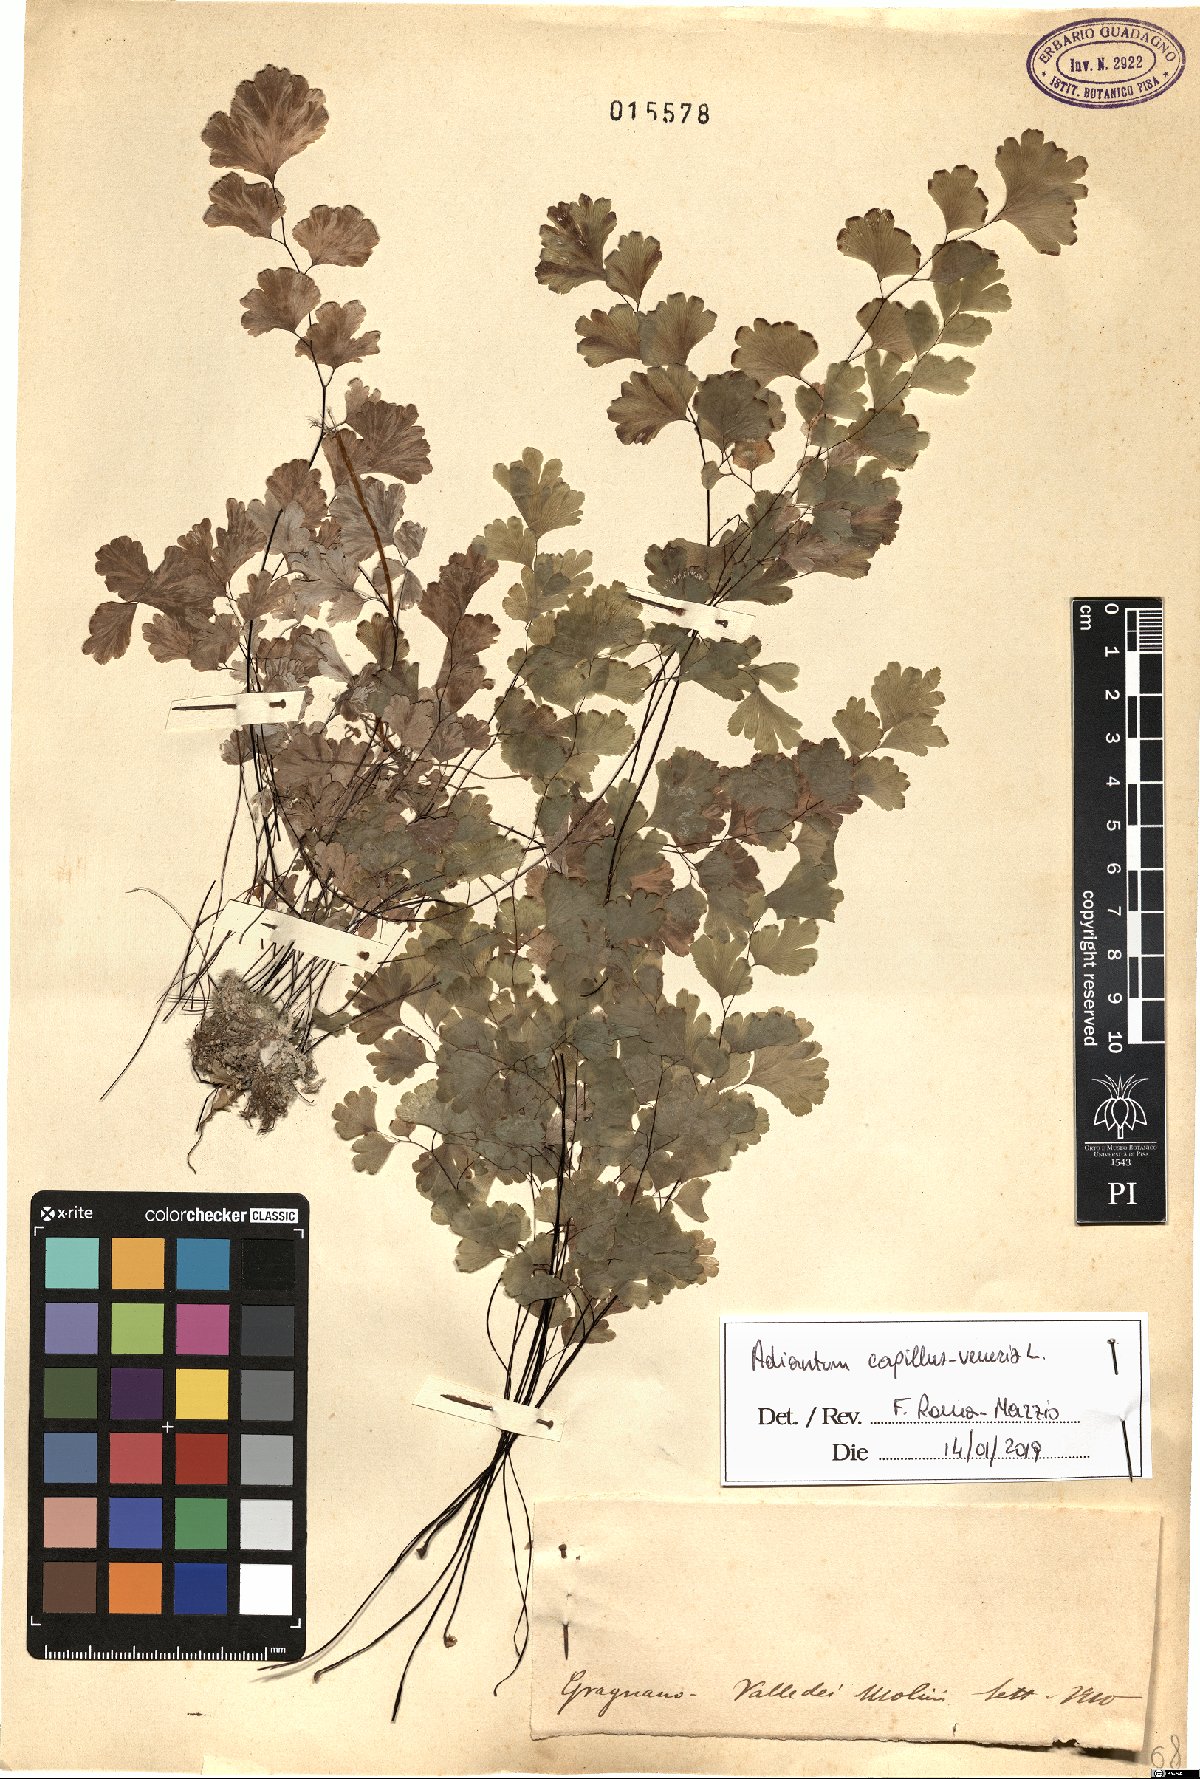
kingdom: Plantae
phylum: Tracheophyta
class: Polypodiopsida
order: Polypodiales
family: Pteridaceae
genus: Adiantum
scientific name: Adiantum capillus-veneris
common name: Maidenhair fern
